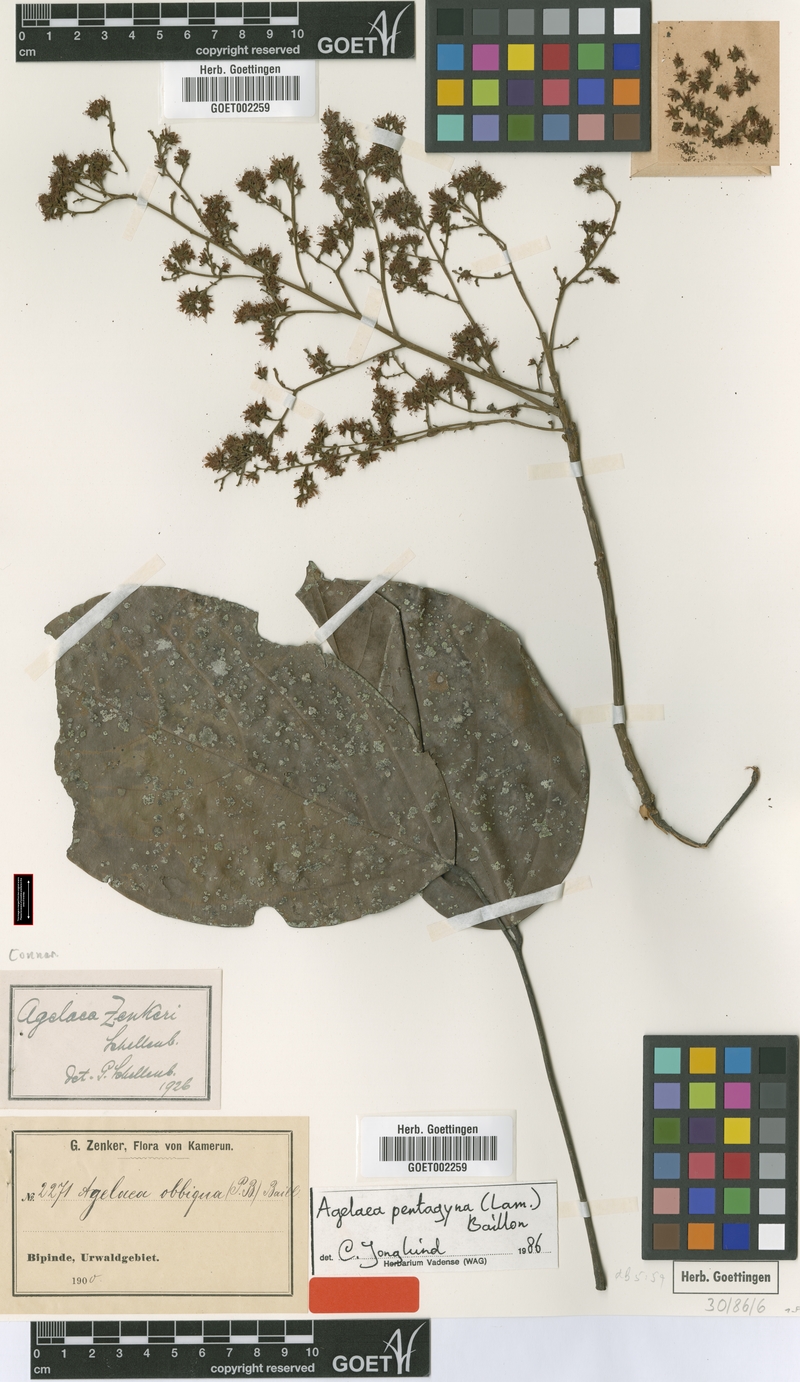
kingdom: Plantae
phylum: Tracheophyta
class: Magnoliopsida
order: Oxalidales
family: Connaraceae
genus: Agelaea
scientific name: Agelaea pentagyna
